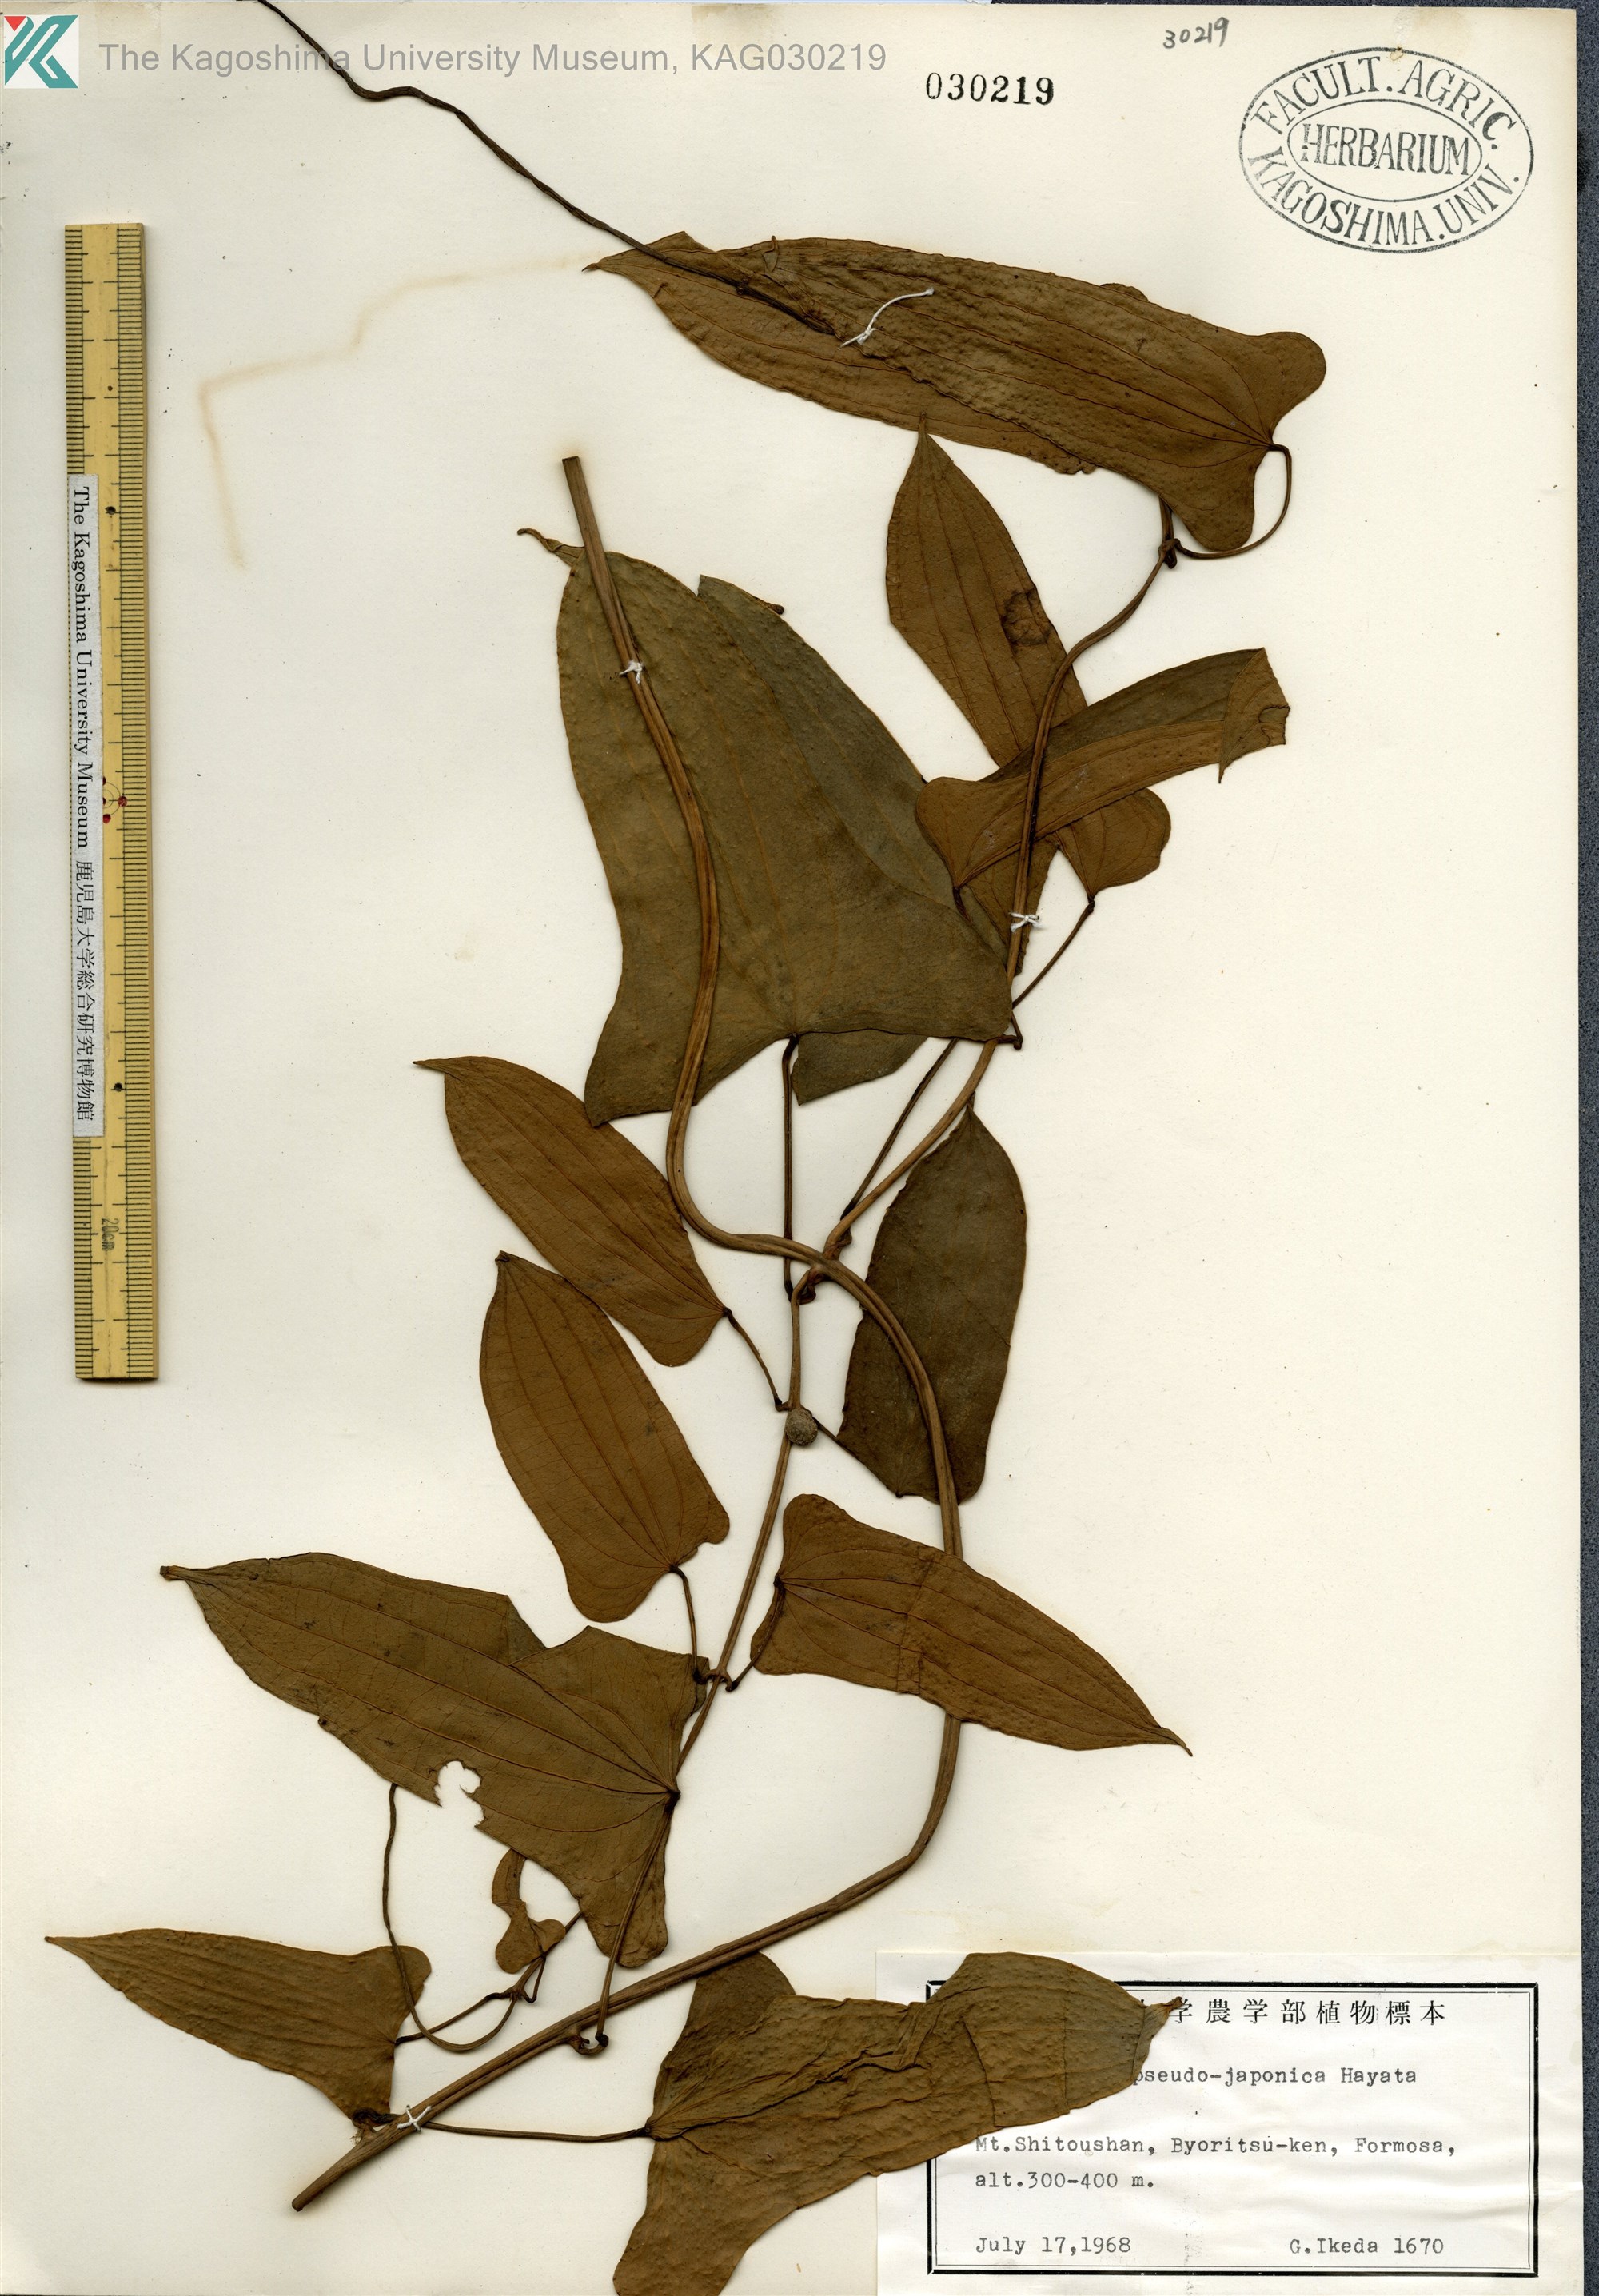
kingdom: Plantae
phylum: Tracheophyta
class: Liliopsida
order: Dioscoreales
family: Dioscoreaceae
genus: Dioscorea
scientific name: Dioscorea pseudojaponica
